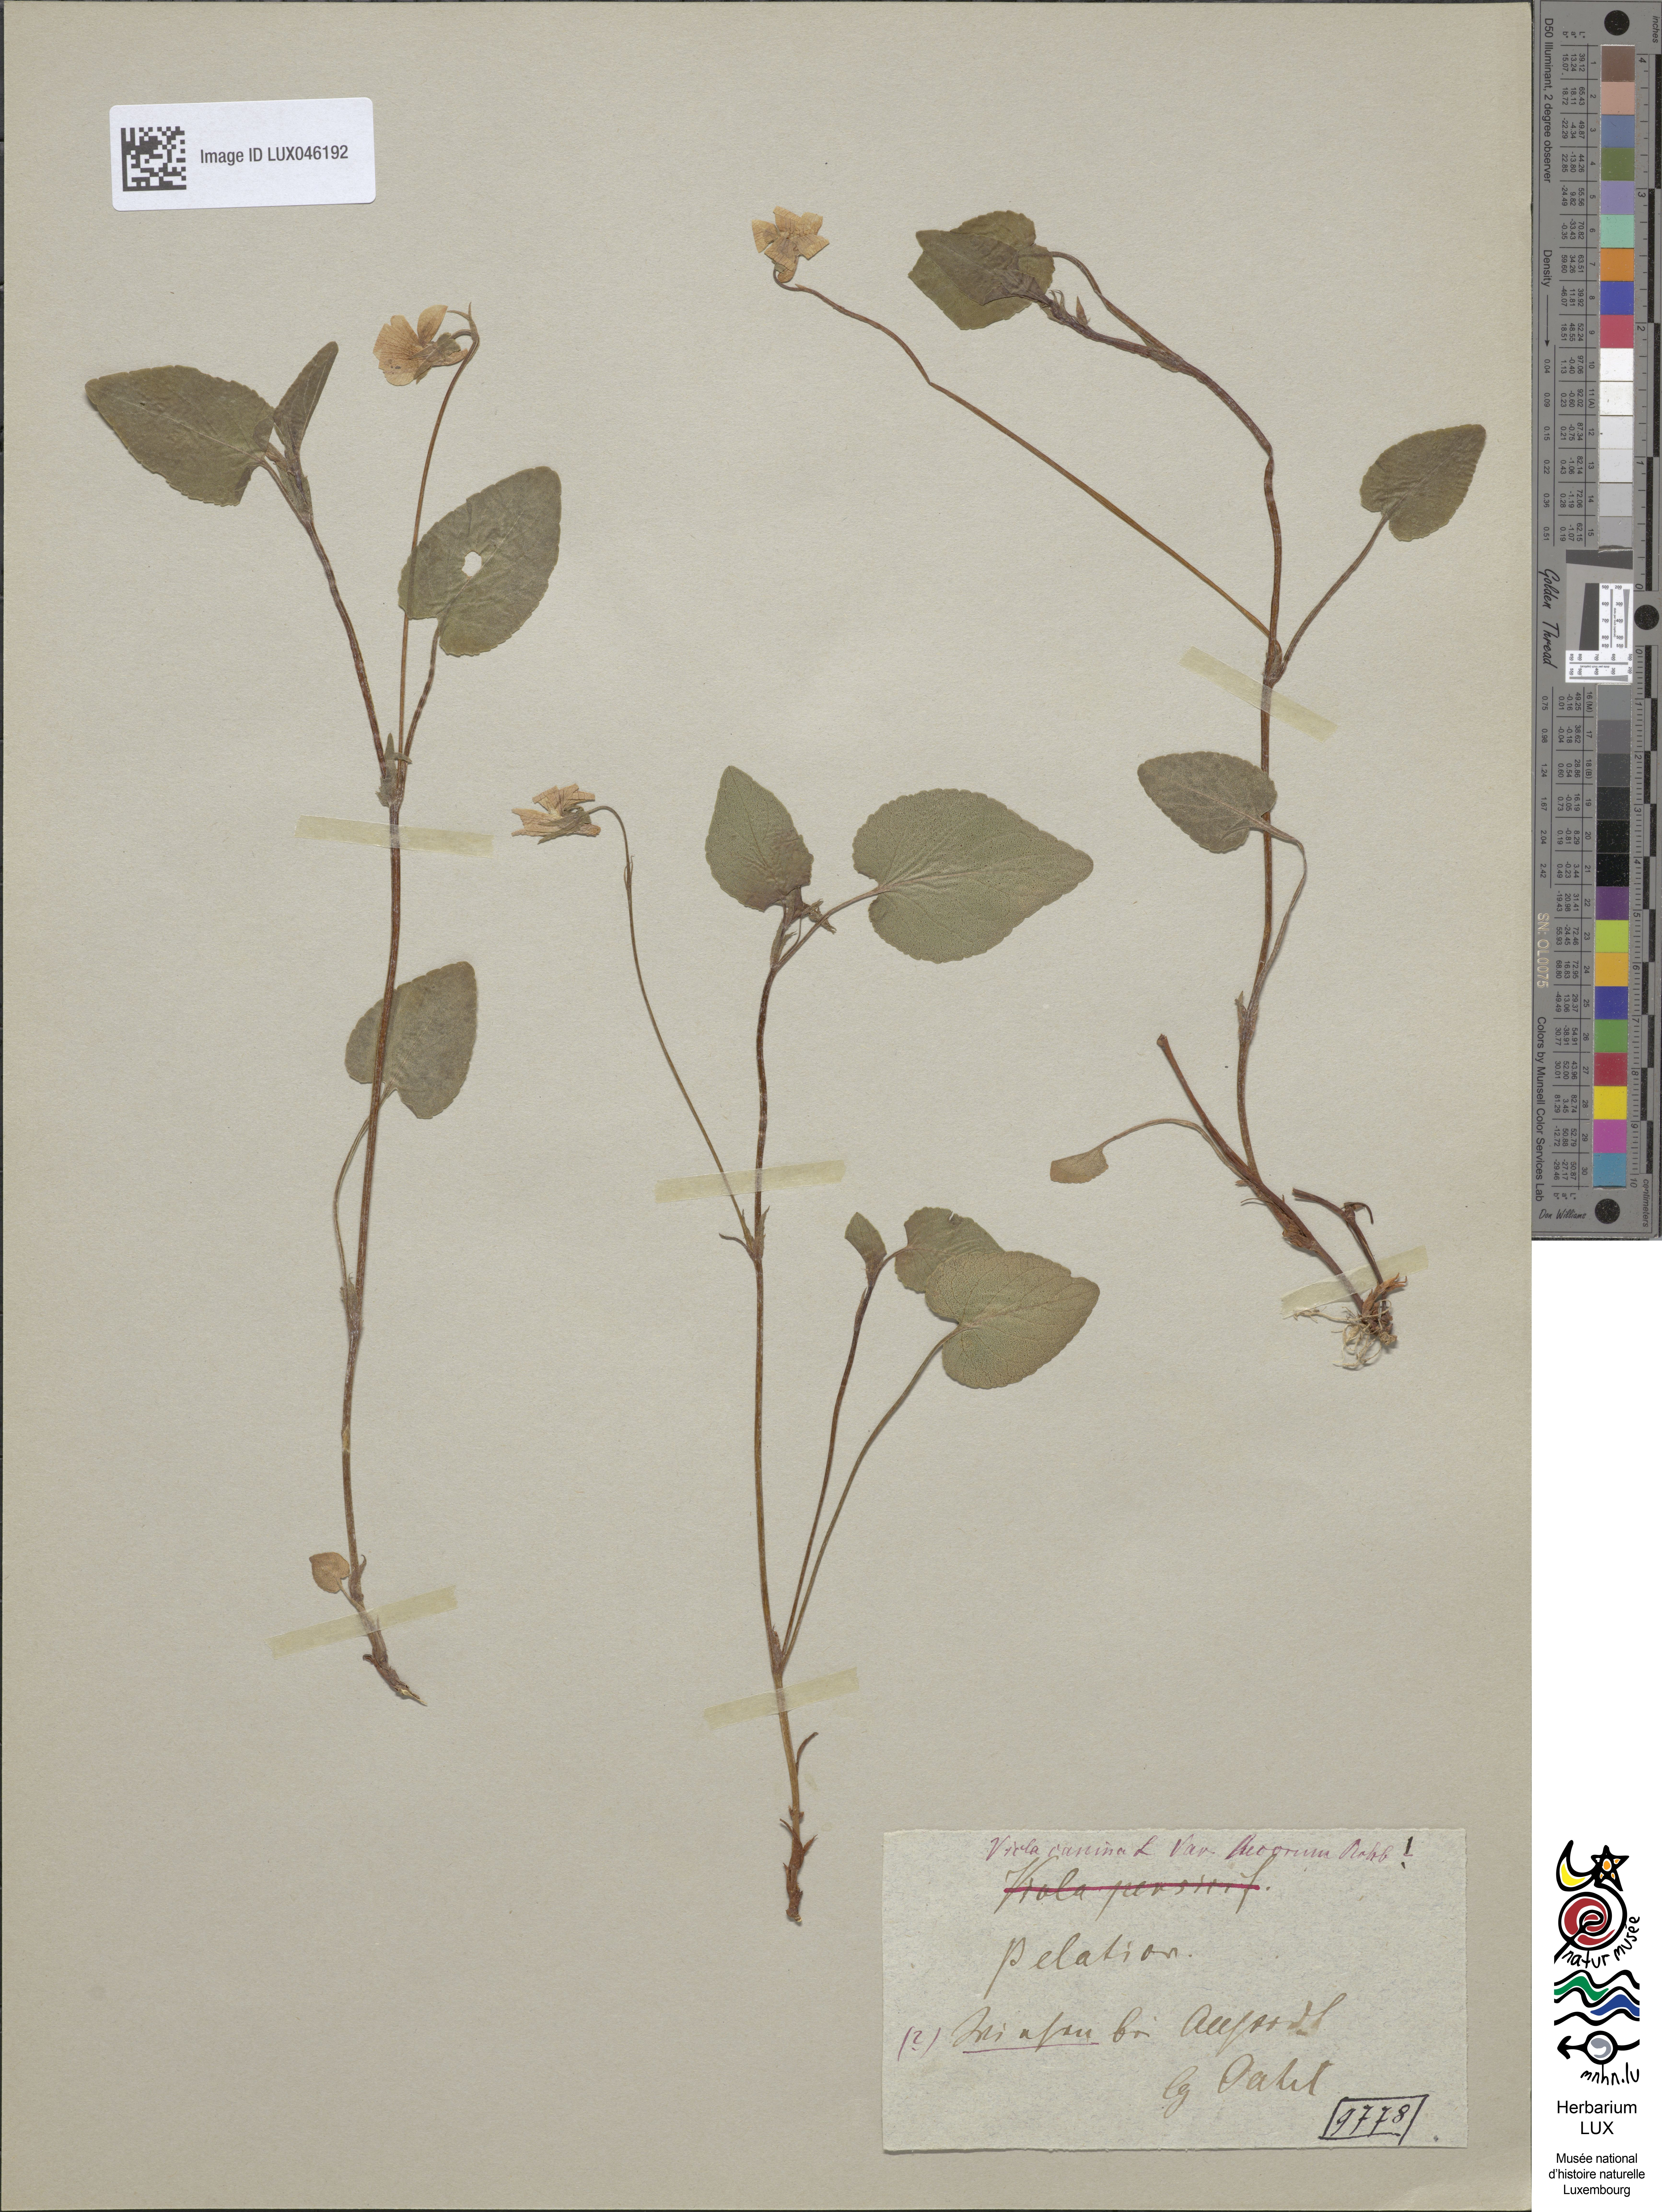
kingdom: Plantae
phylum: Tracheophyta
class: Magnoliopsida
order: Malpighiales
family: Violaceae
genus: Viola
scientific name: Viola canina
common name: Heath dog-violet
